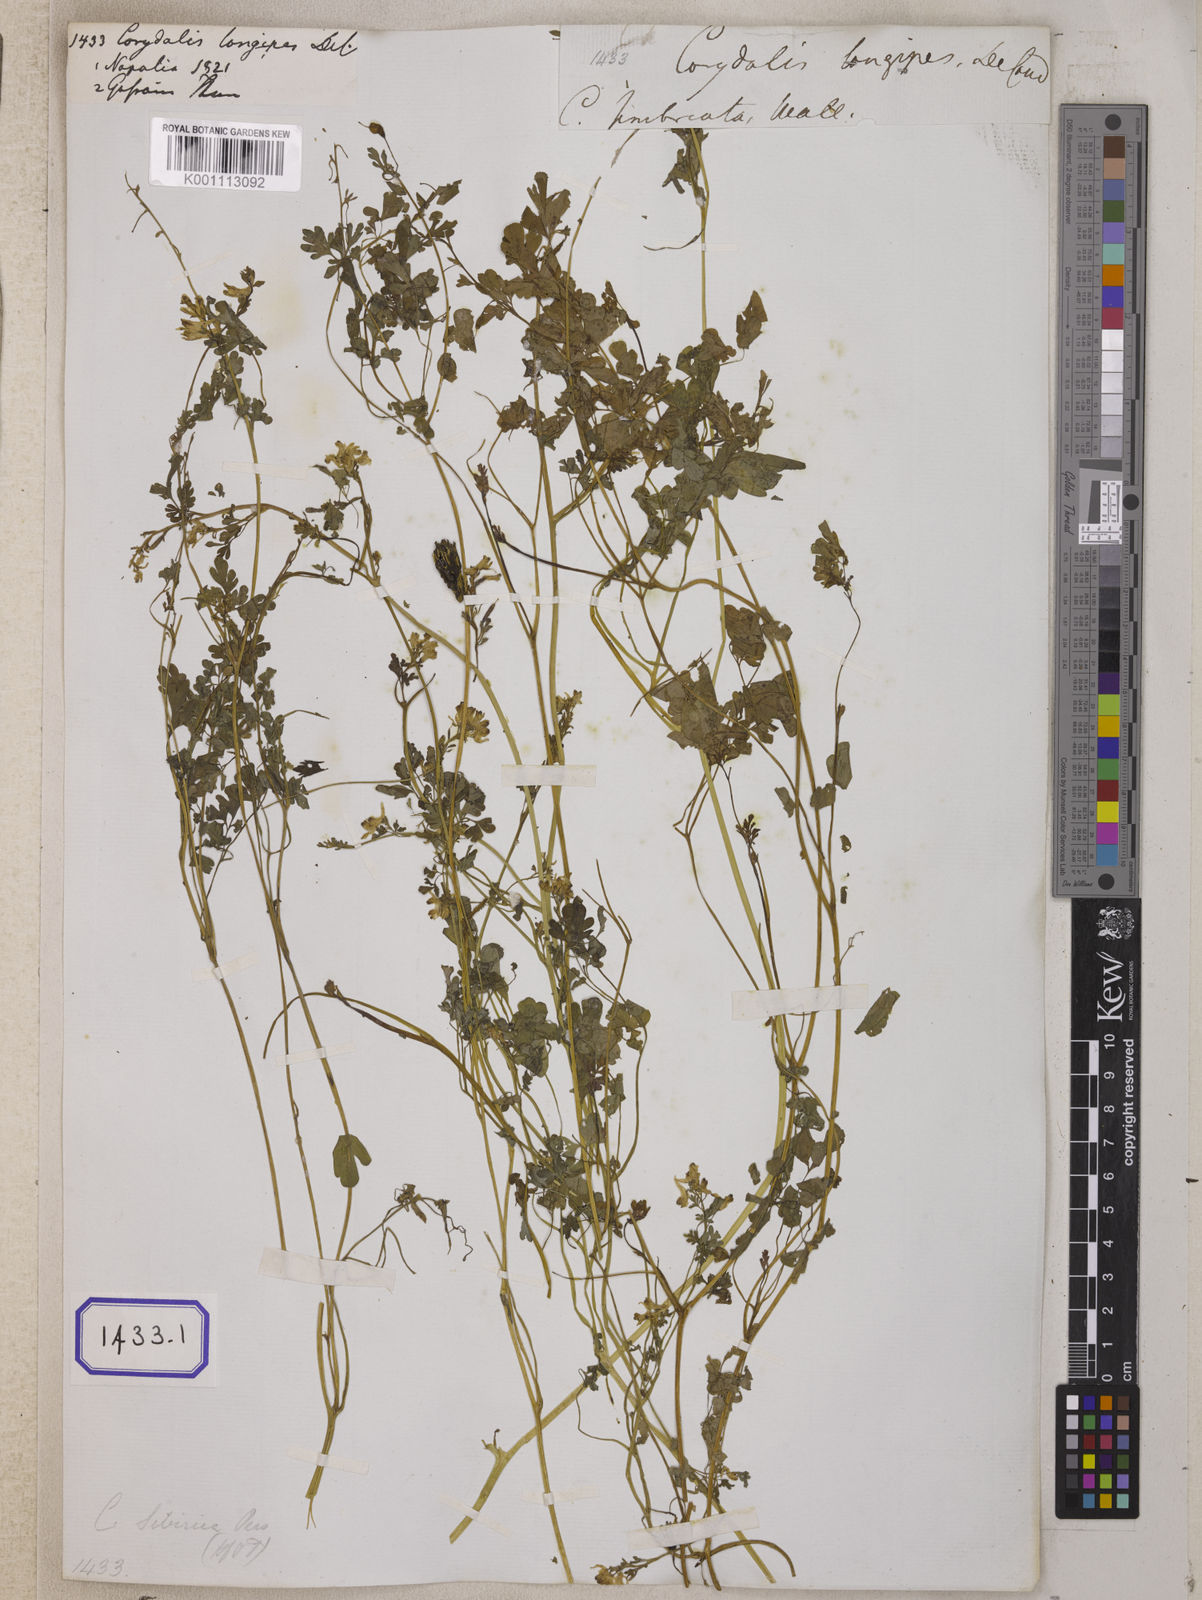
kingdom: Plantae
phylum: Tracheophyta
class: Magnoliopsida
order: Ranunculales
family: Papaveraceae
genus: Corydalis
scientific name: Corydalis longipes
